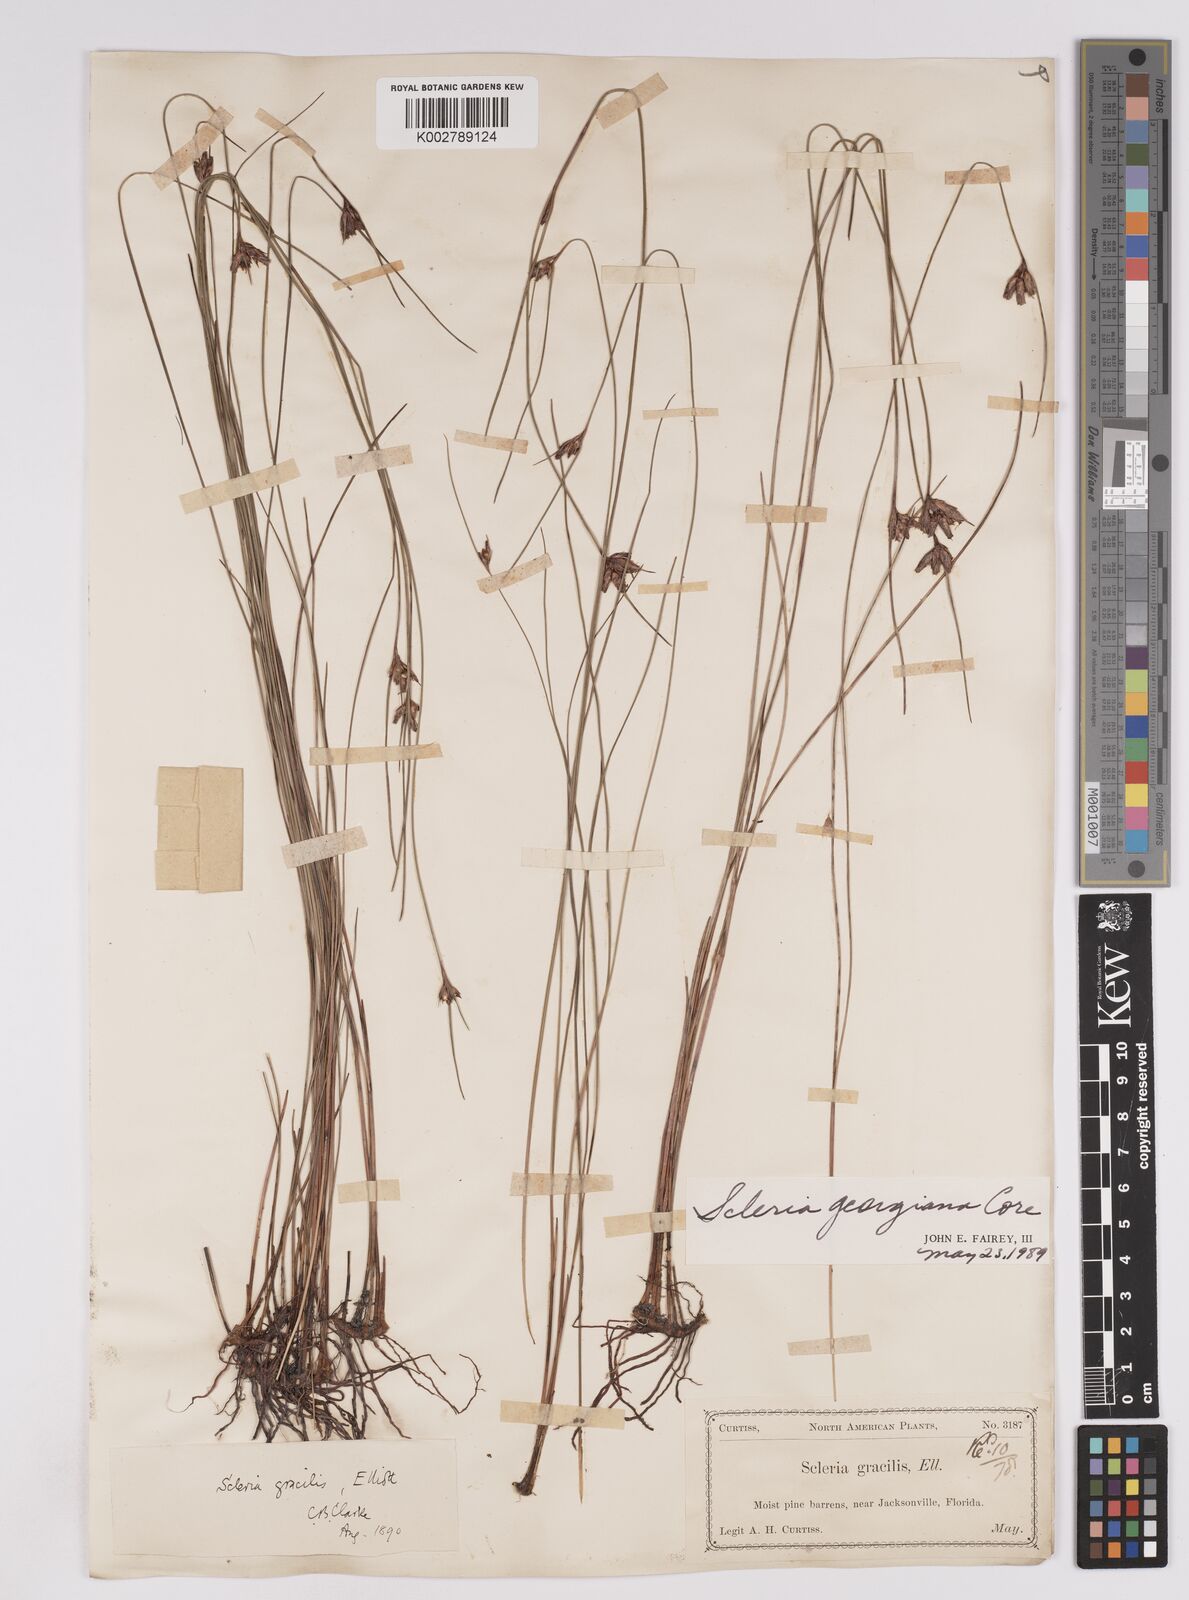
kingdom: Plantae
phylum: Tracheophyta
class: Liliopsida
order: Poales
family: Cyperaceae
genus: Scleria
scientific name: Scleria georgiana
